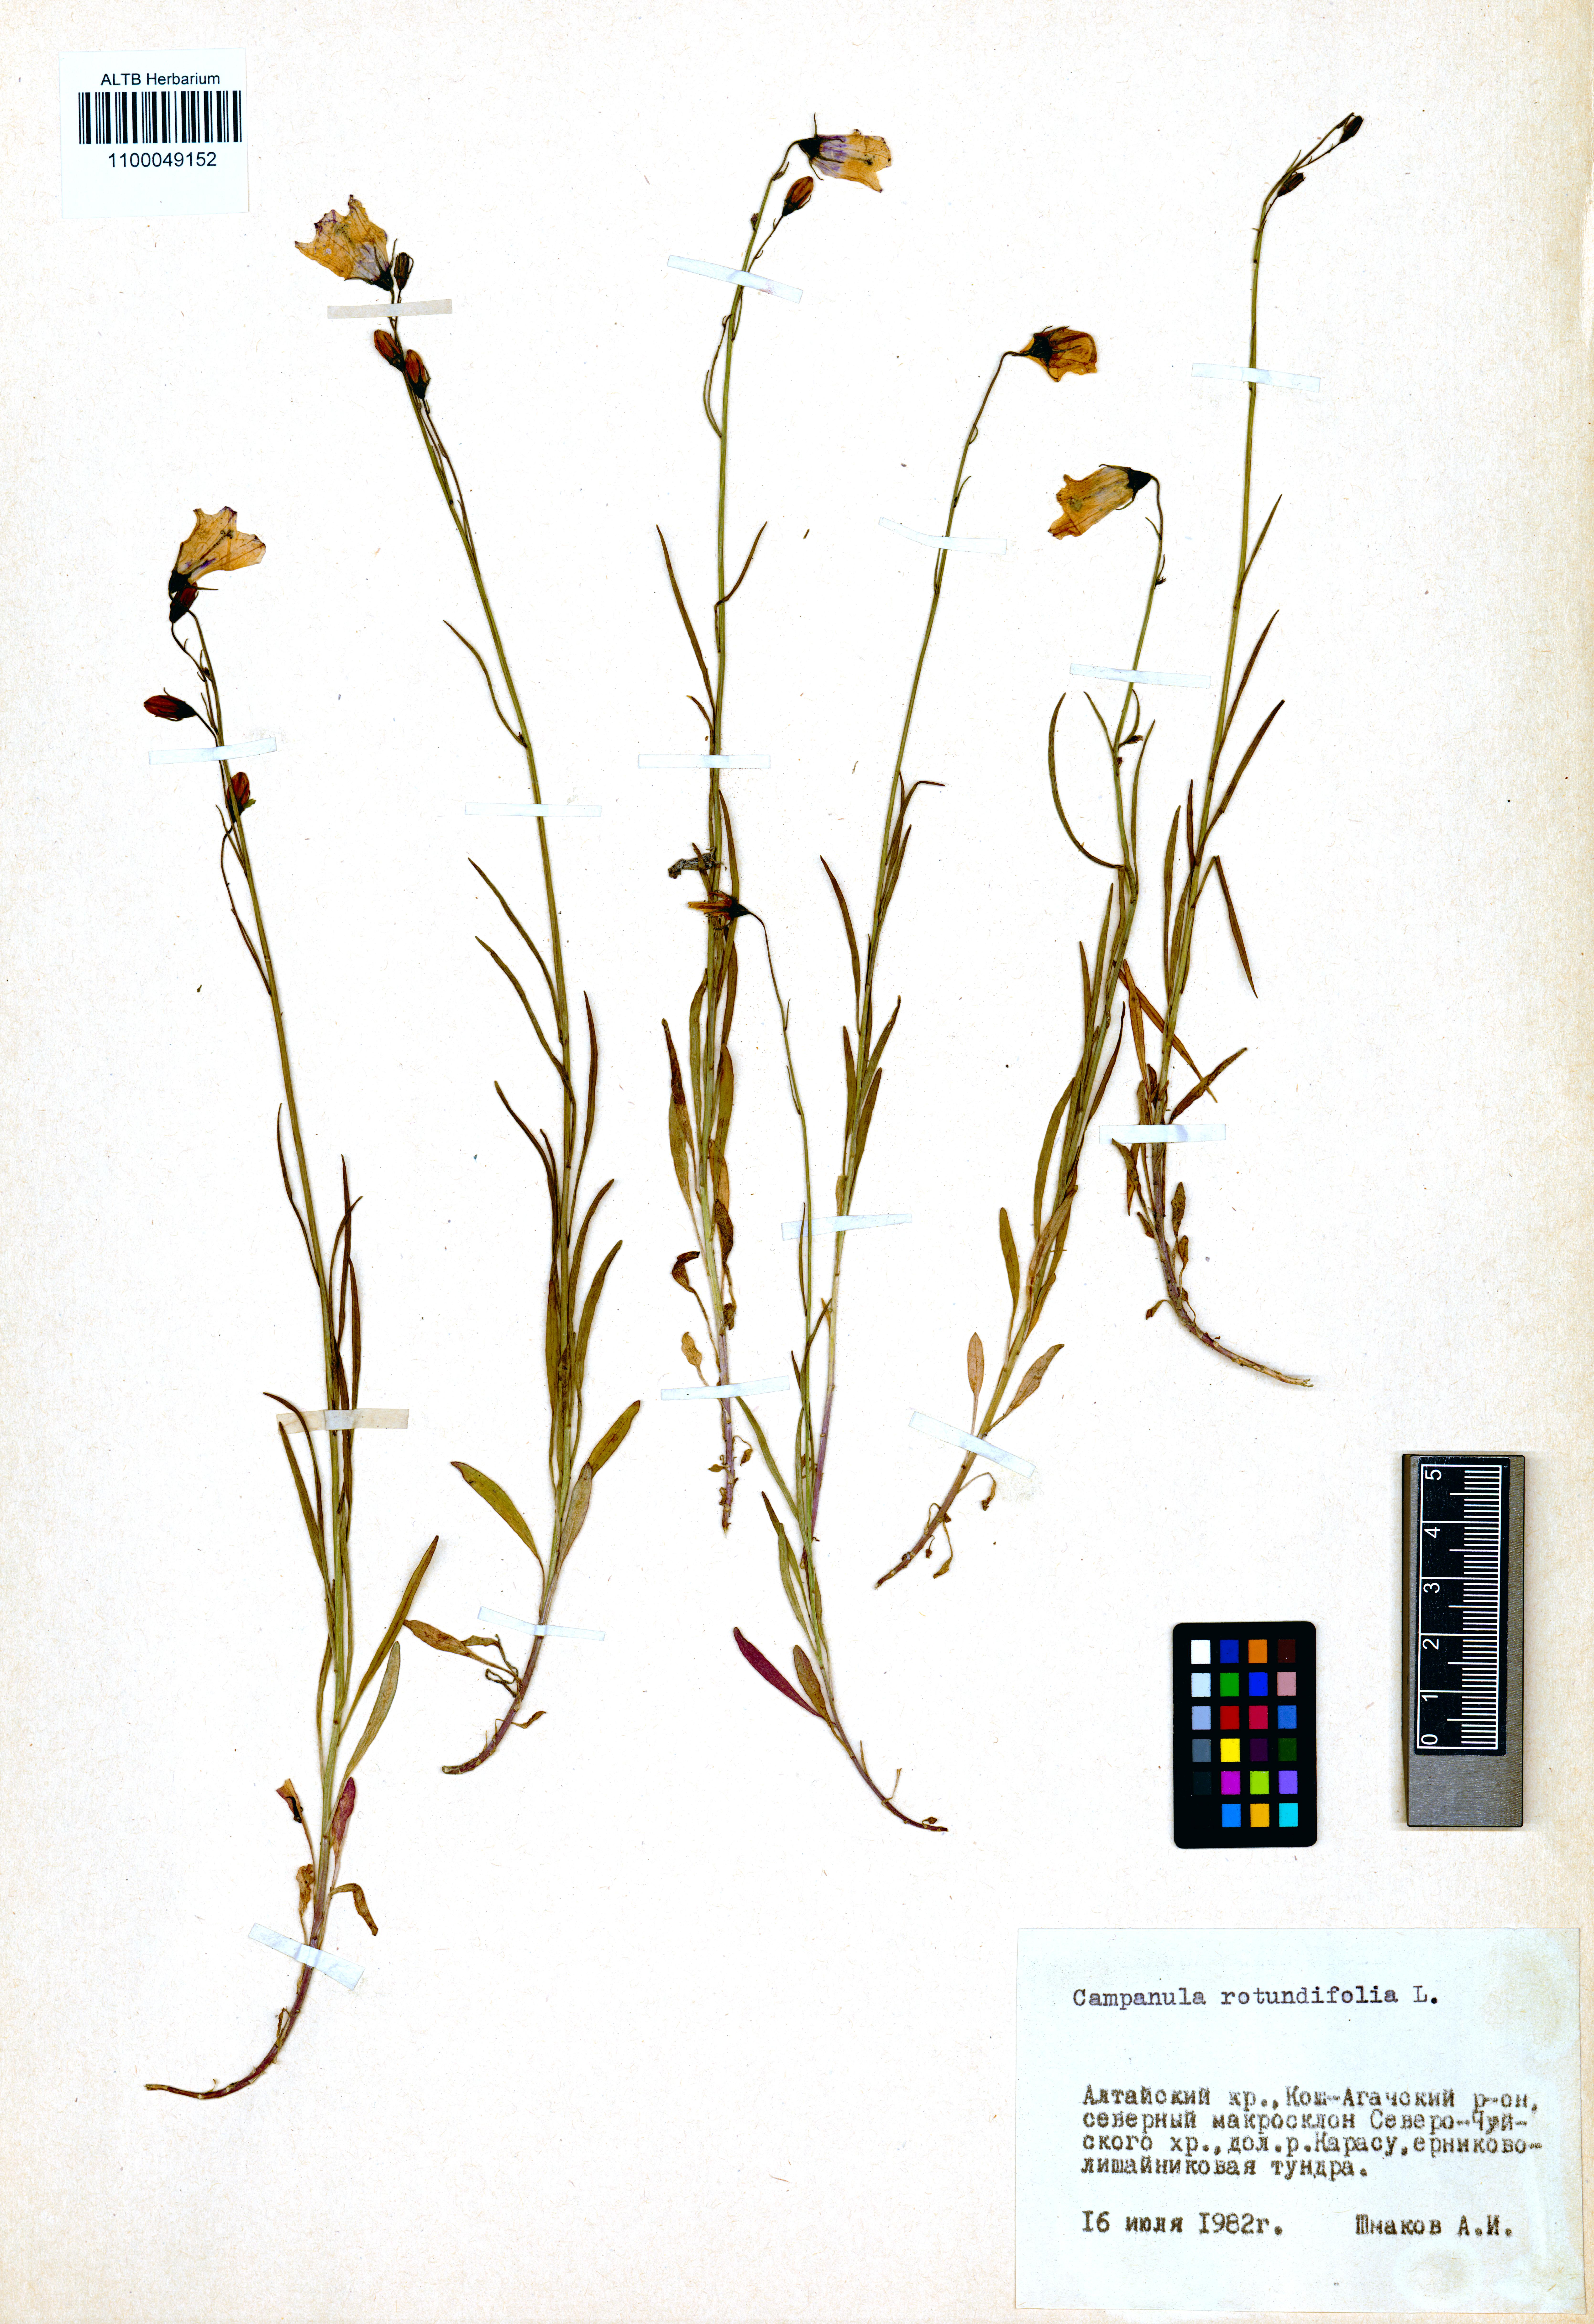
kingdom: Plantae
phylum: Tracheophyta
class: Magnoliopsida
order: Asterales
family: Campanulaceae
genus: Campanula
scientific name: Campanula rotundifolia
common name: Harebell
